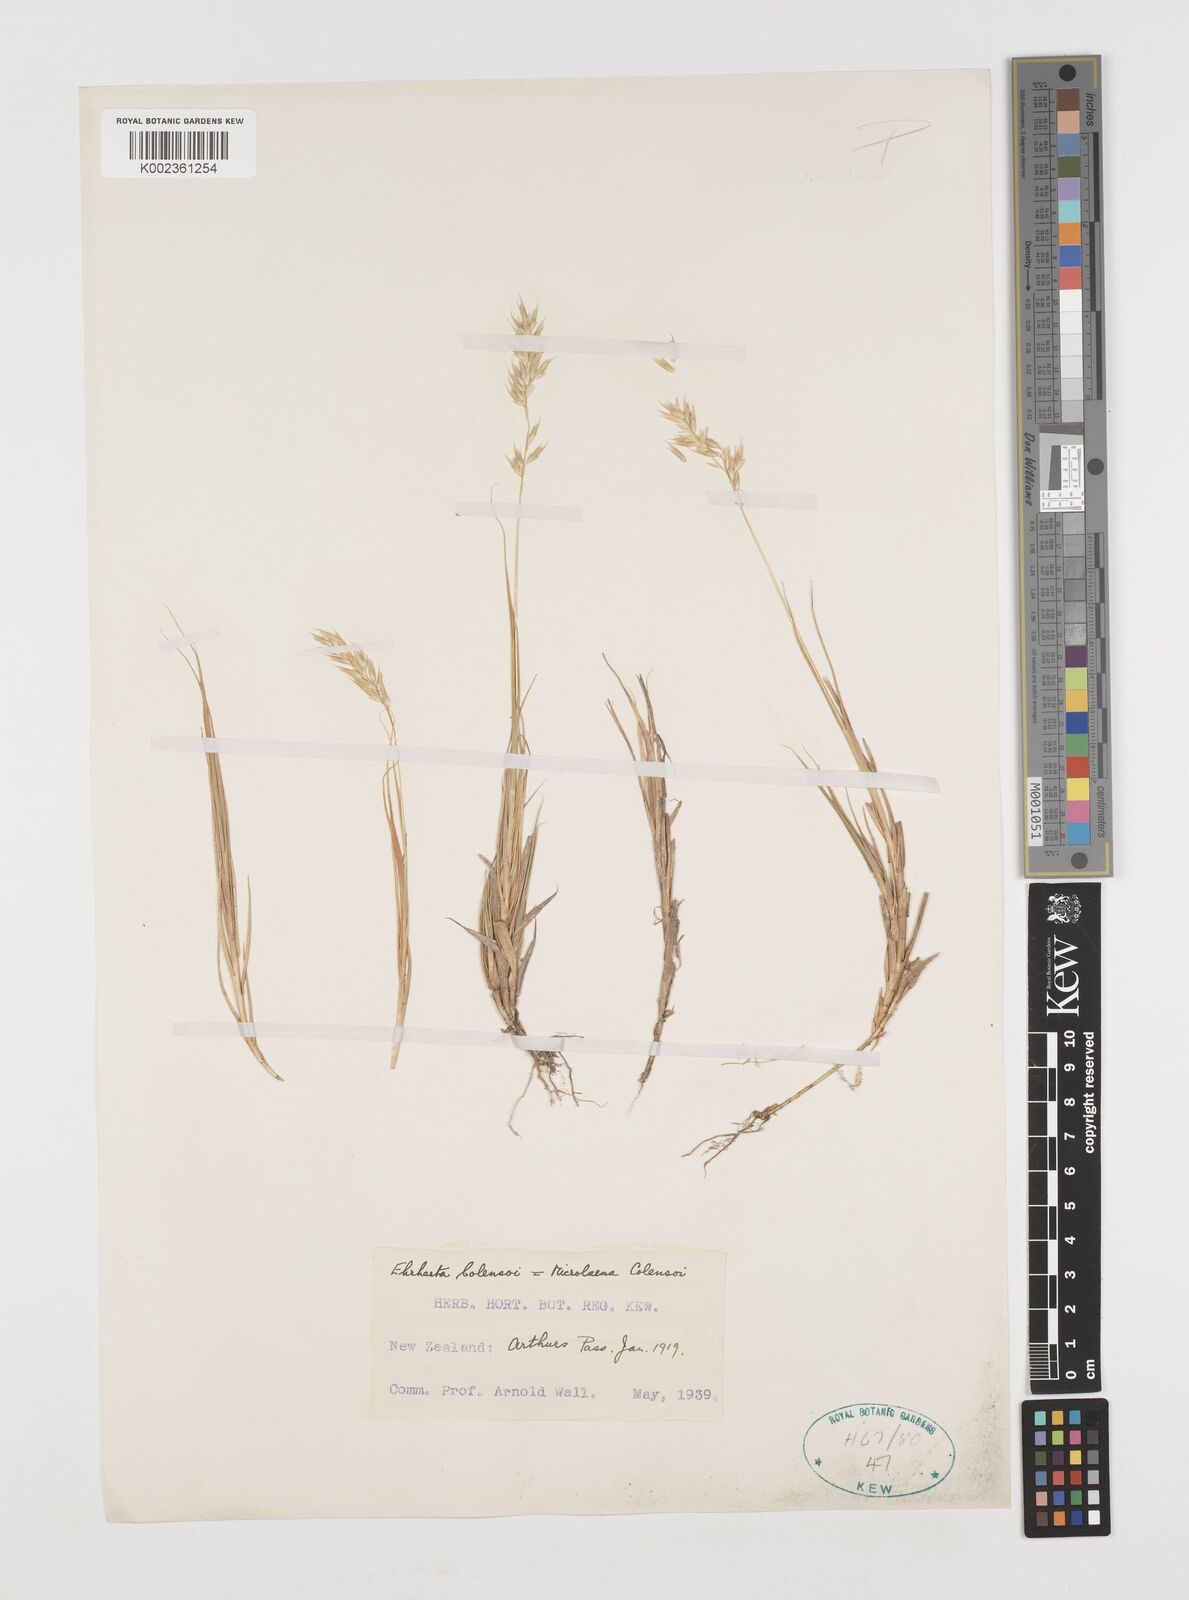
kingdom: Plantae
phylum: Tracheophyta
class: Liliopsida
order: Poales
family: Poaceae
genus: Zotovia
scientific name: Zotovia colensoi
